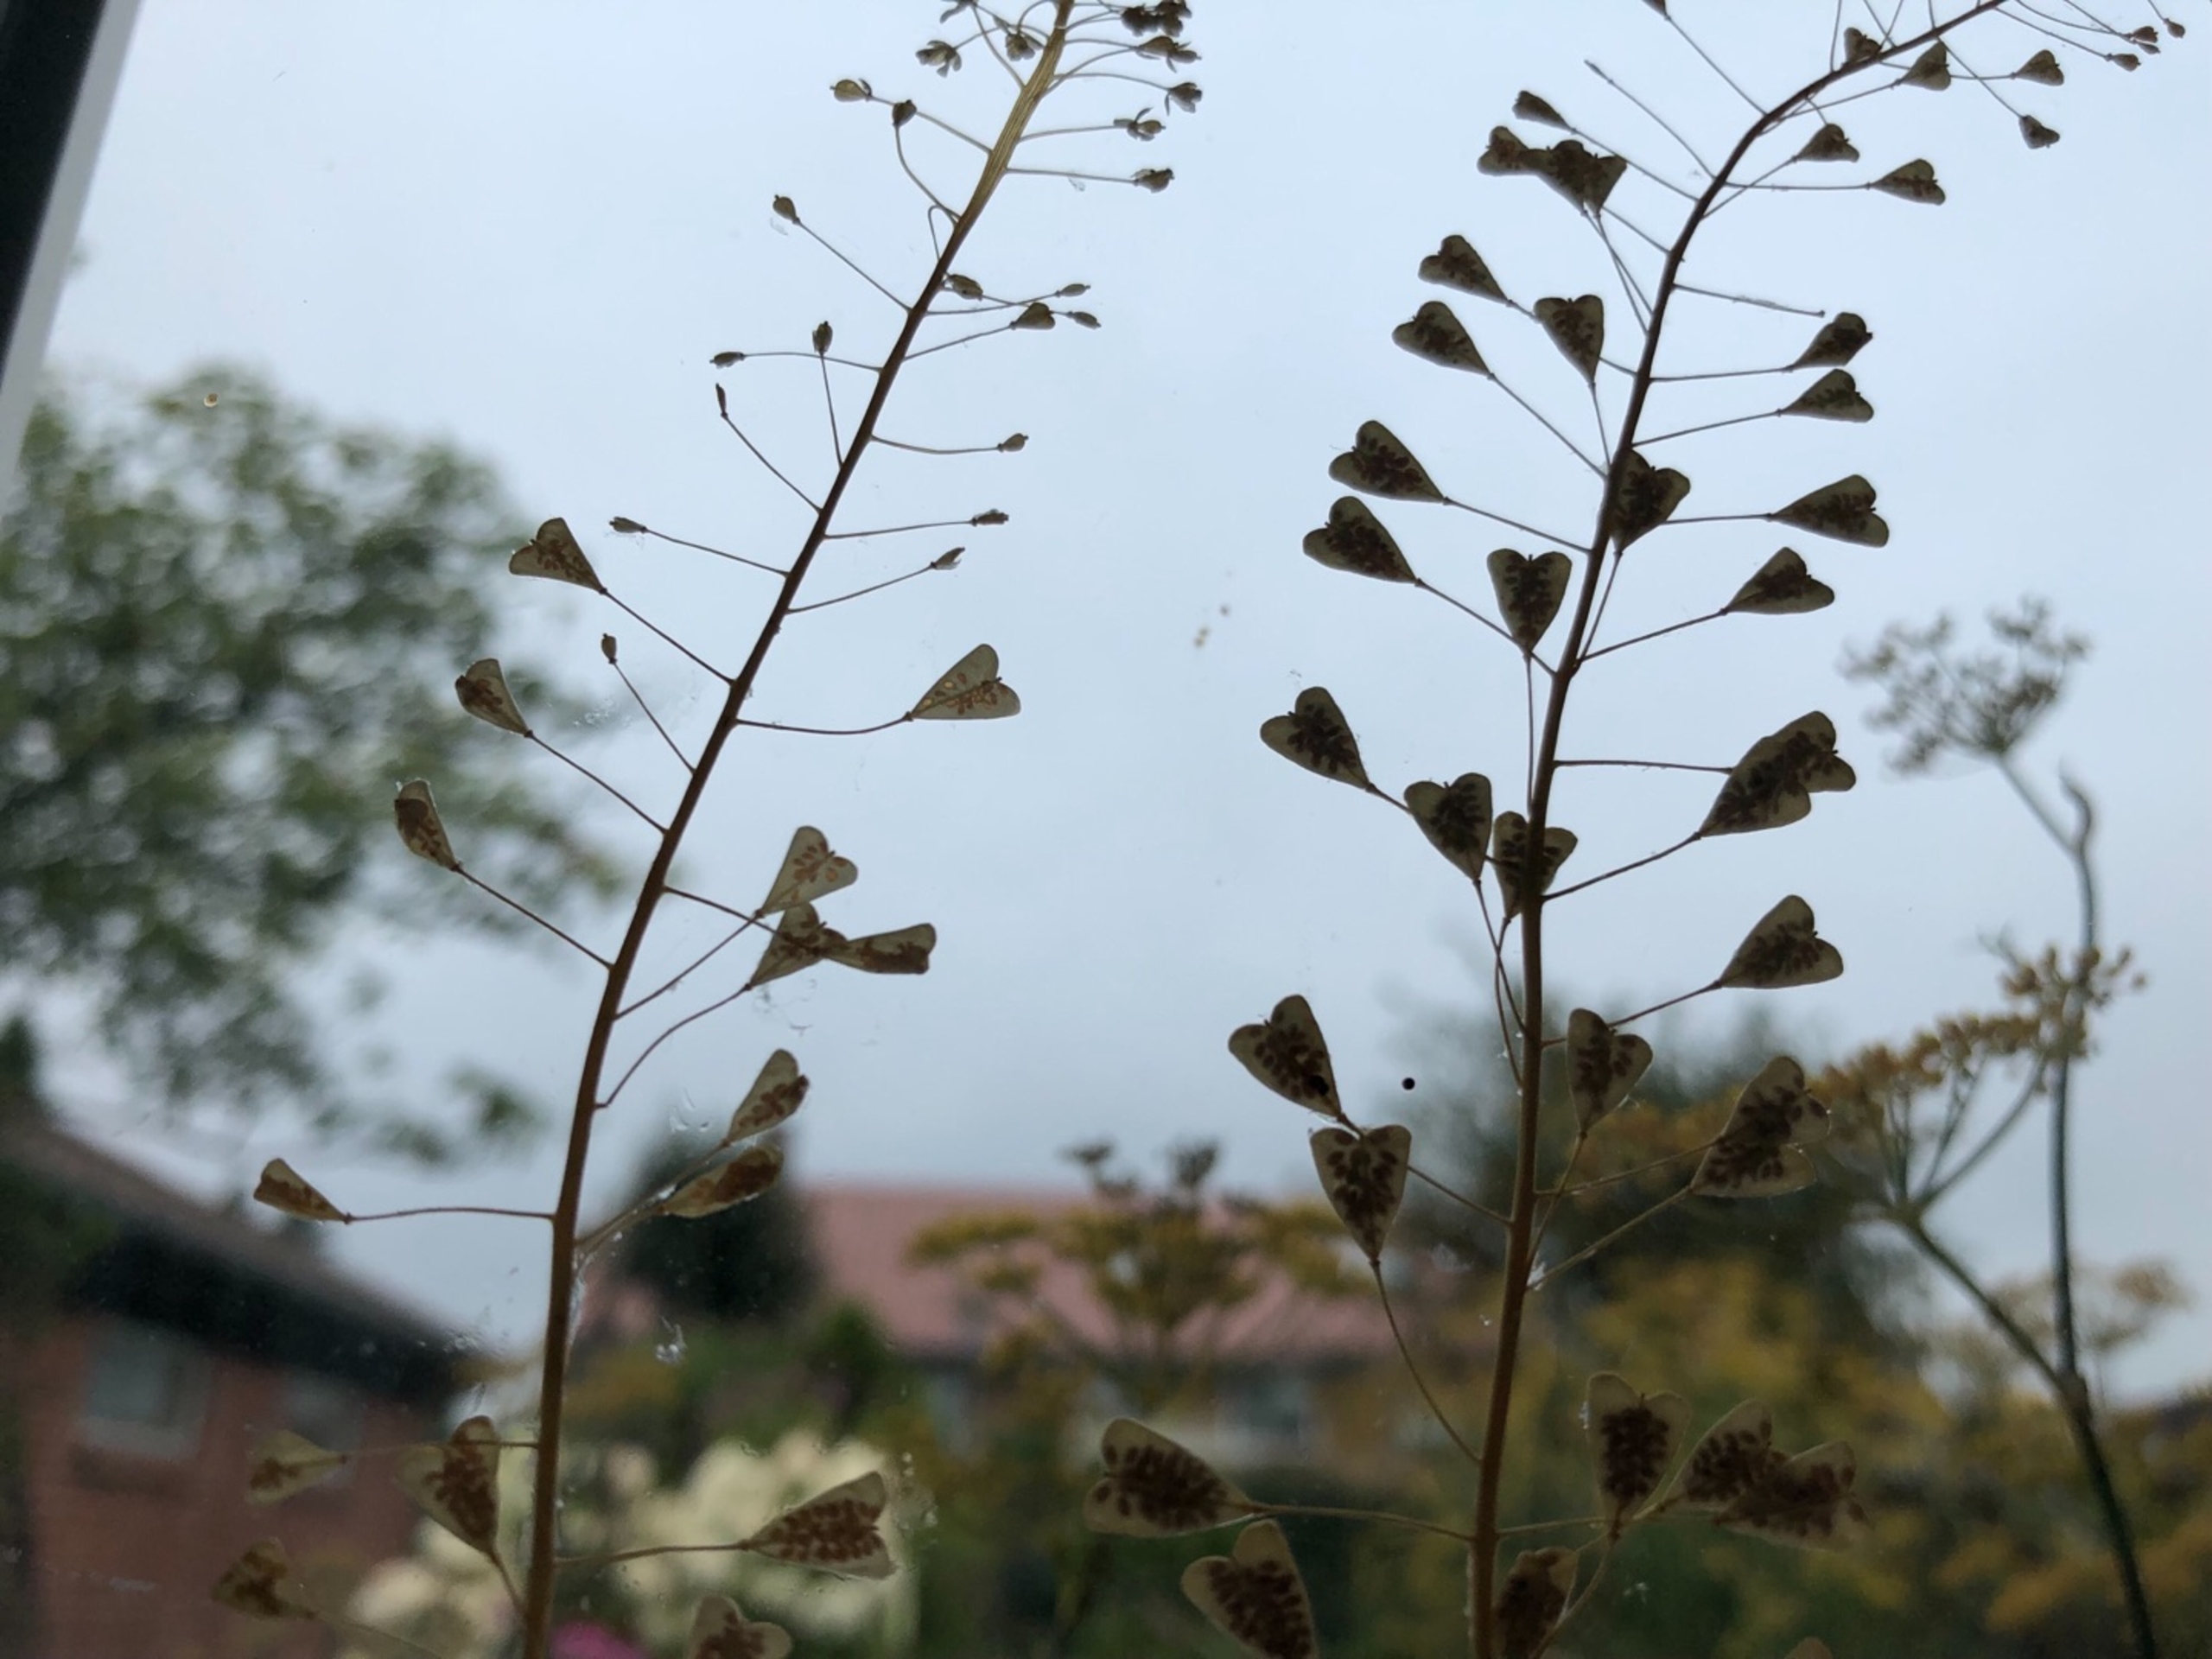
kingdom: Plantae
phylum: Tracheophyta
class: Magnoliopsida
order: Brassicales
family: Brassicaceae
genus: Capsella
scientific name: Capsella bursa-pastoris
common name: Hyrdetaske
